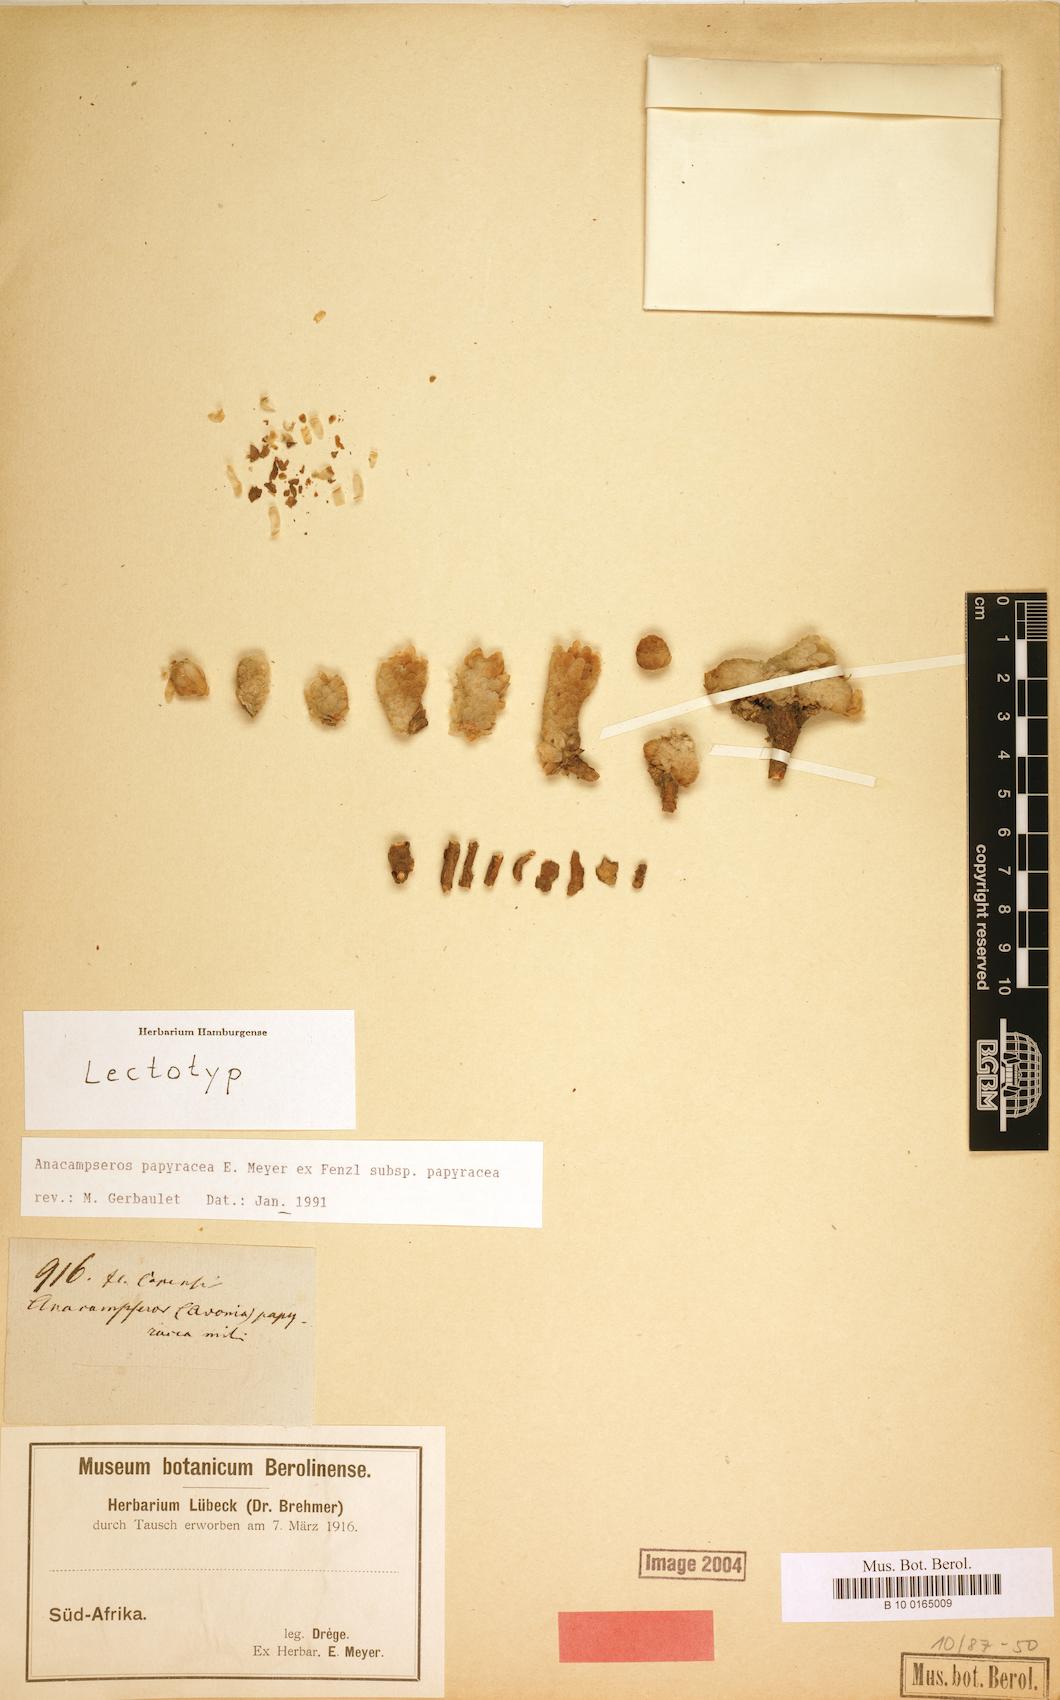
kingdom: Plantae
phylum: Tracheophyta
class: Magnoliopsida
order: Caryophyllales
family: Anacampserotaceae
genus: Avonia
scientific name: Avonia papyracea
